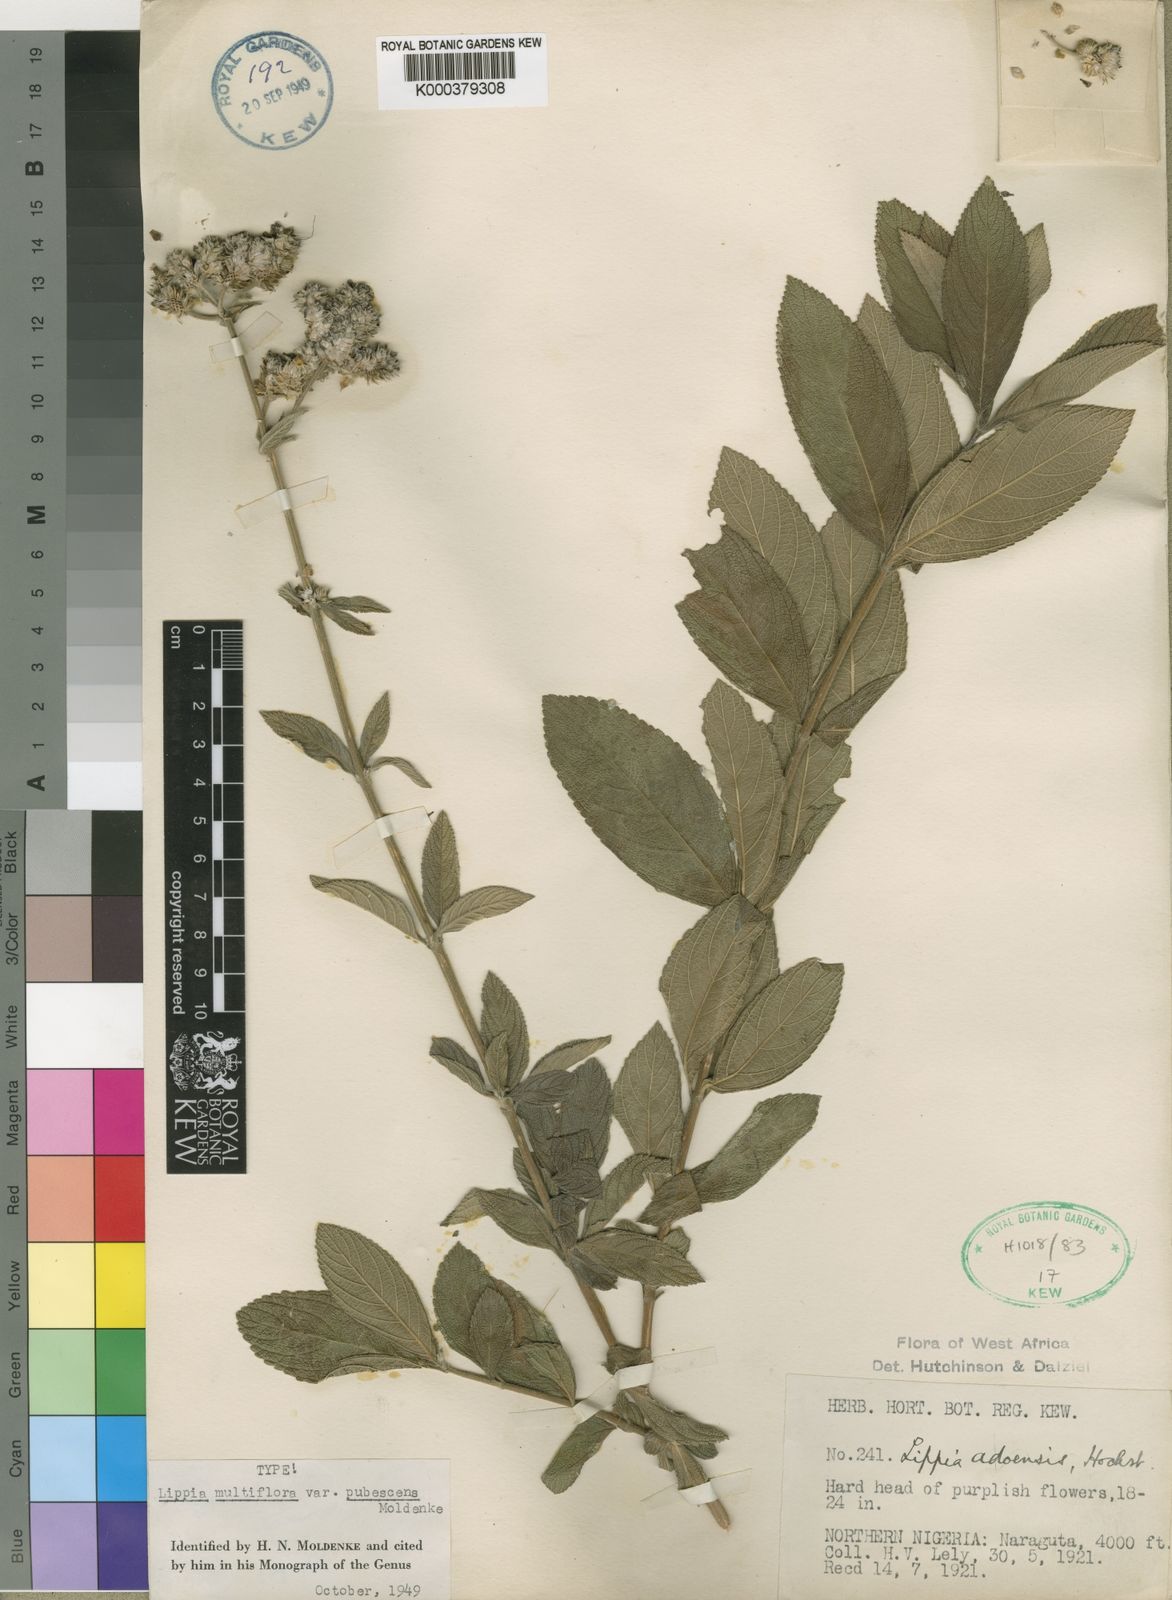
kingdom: Plantae
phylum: Tracheophyta
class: Magnoliopsida
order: Lamiales
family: Verbenaceae
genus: Lippia
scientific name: Lippia savoryi
